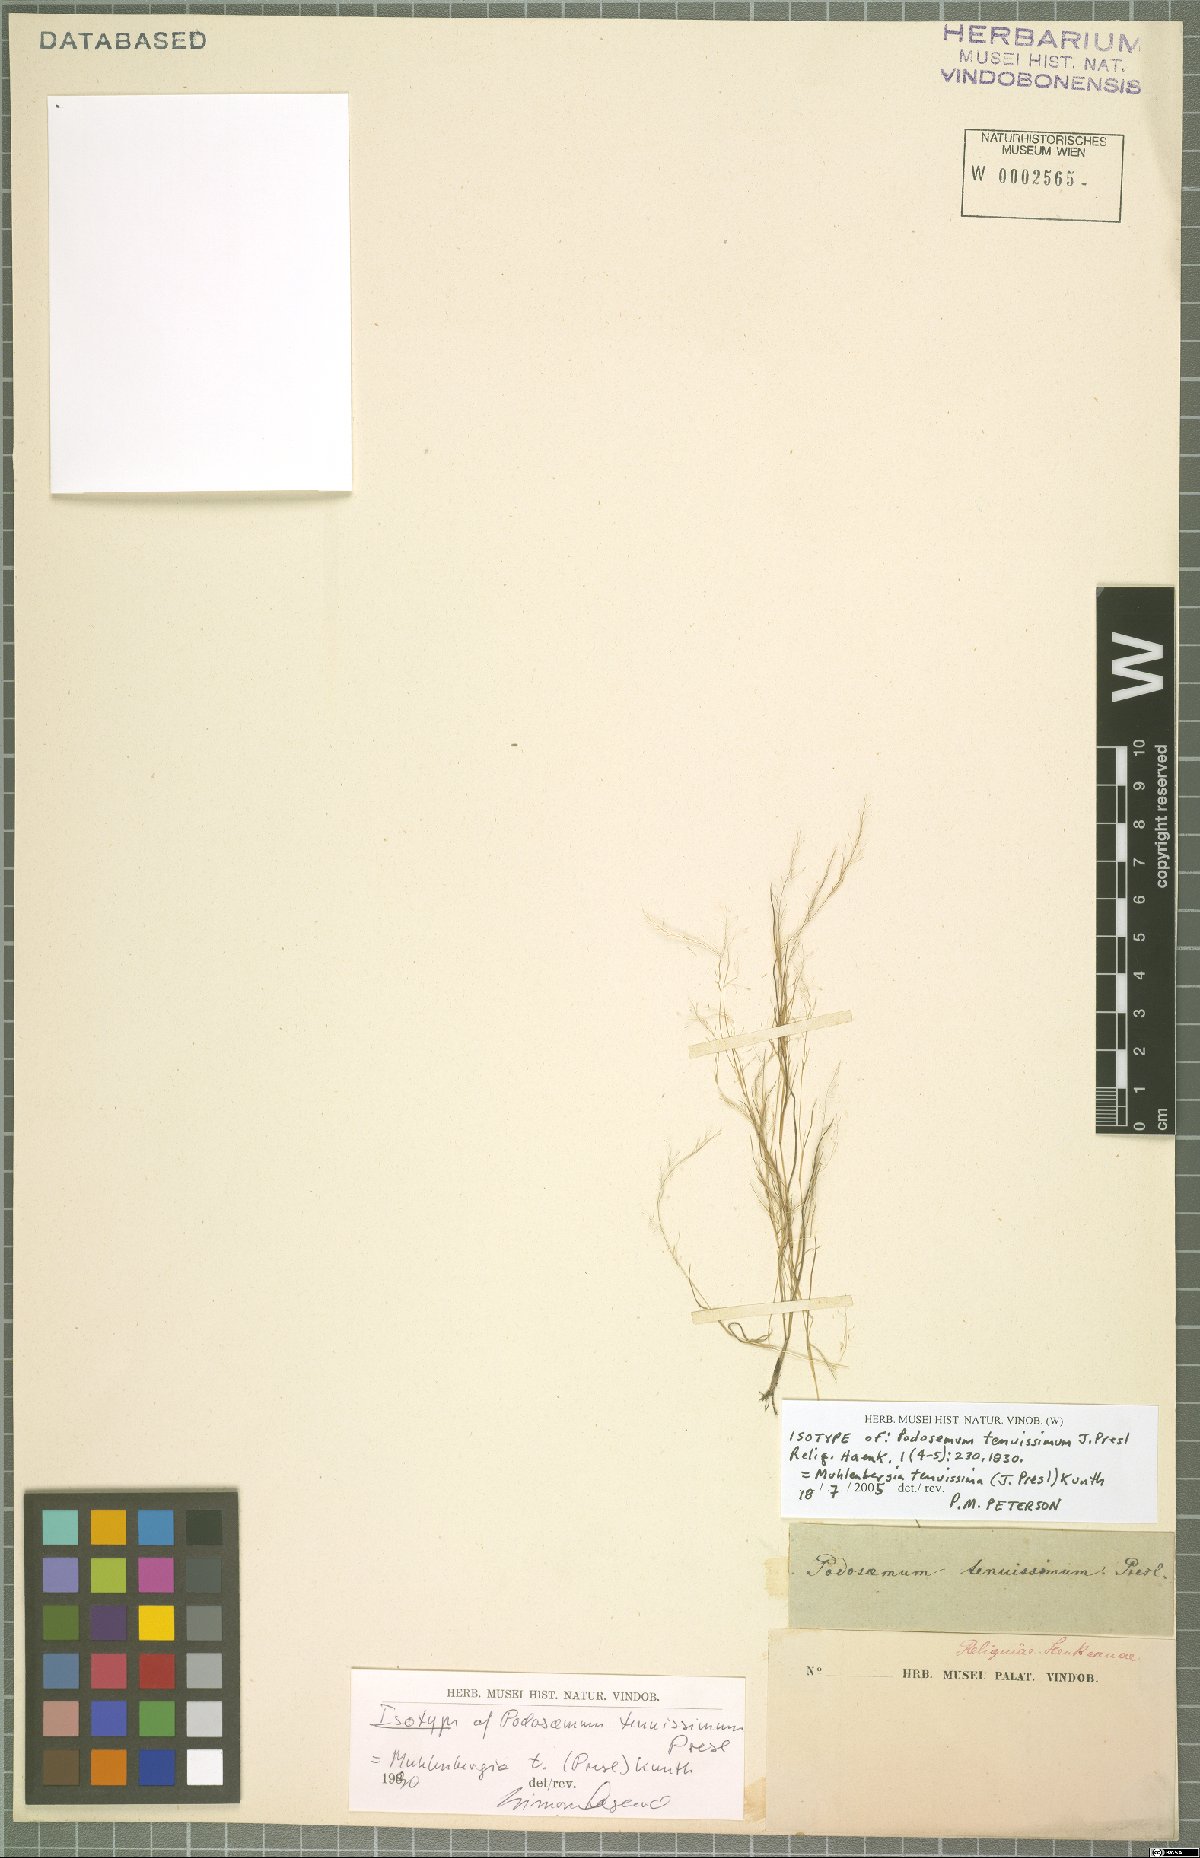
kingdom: Plantae
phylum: Tracheophyta
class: Liliopsida
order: Poales
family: Poaceae
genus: Muhlenbergia
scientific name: Muhlenbergia tenuissima
